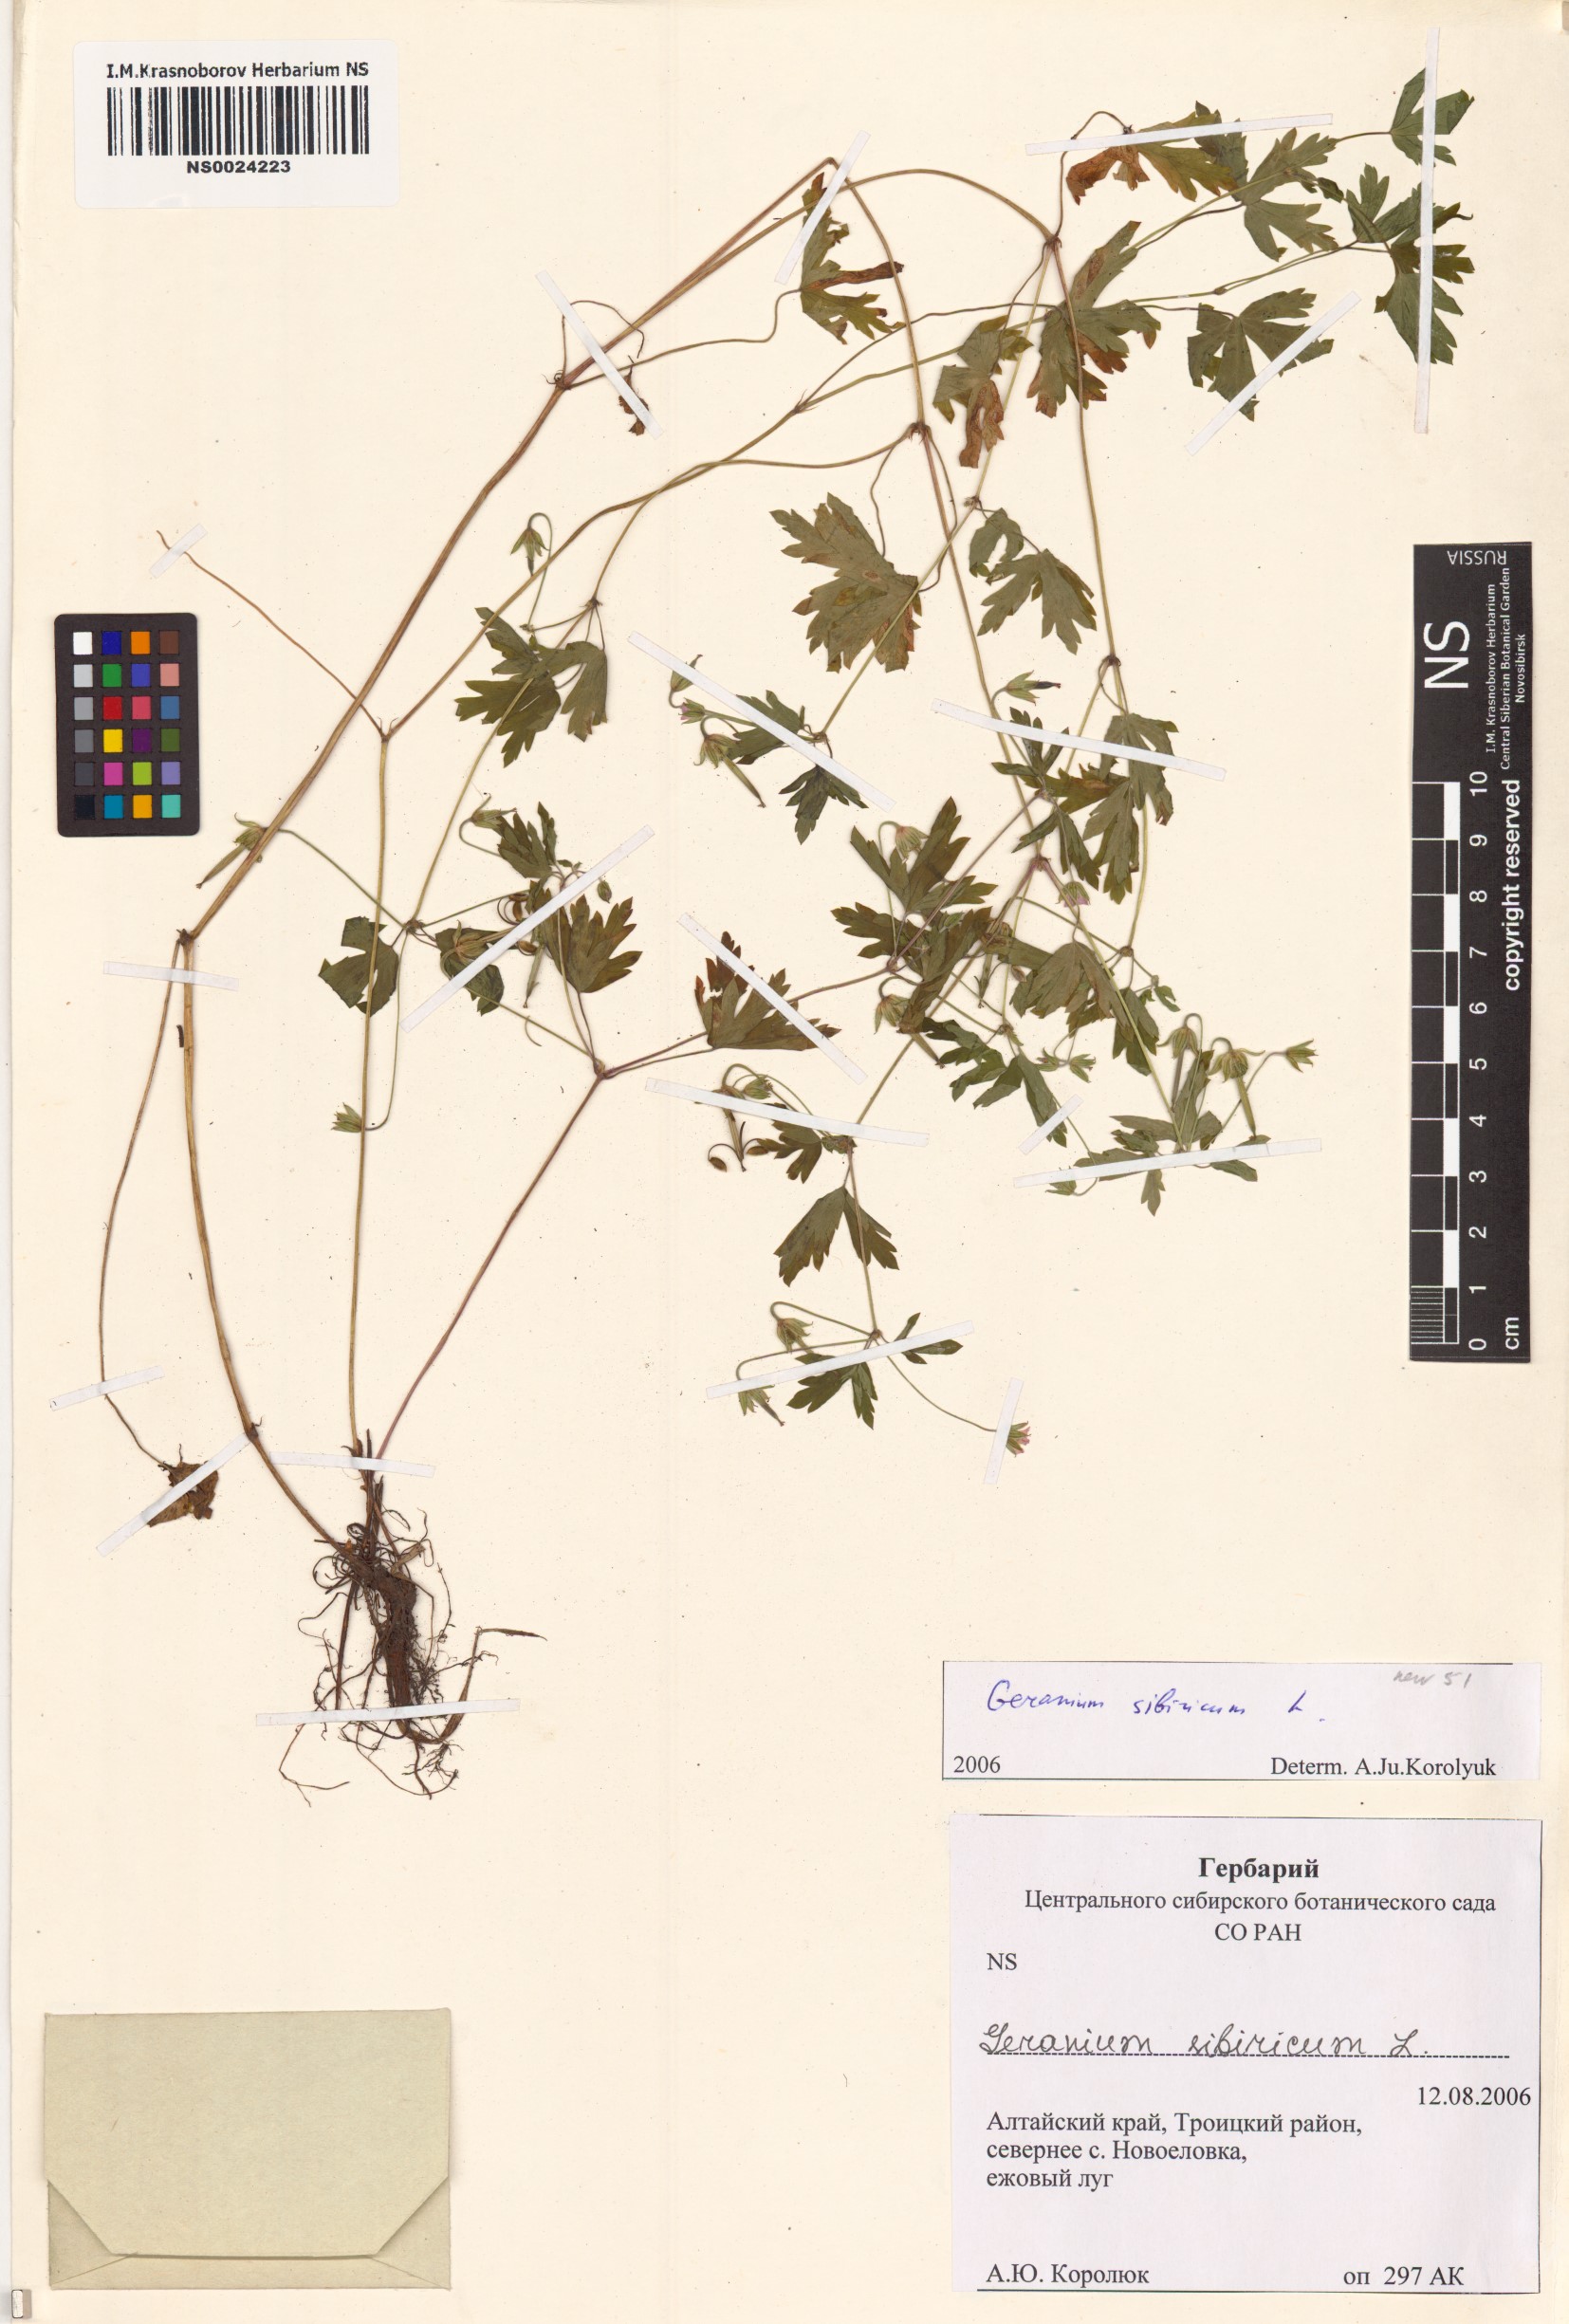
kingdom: Plantae
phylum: Tracheophyta
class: Magnoliopsida
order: Geraniales
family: Geraniaceae
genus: Geranium
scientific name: Geranium sibiricum
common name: Siberian crane's-bill
